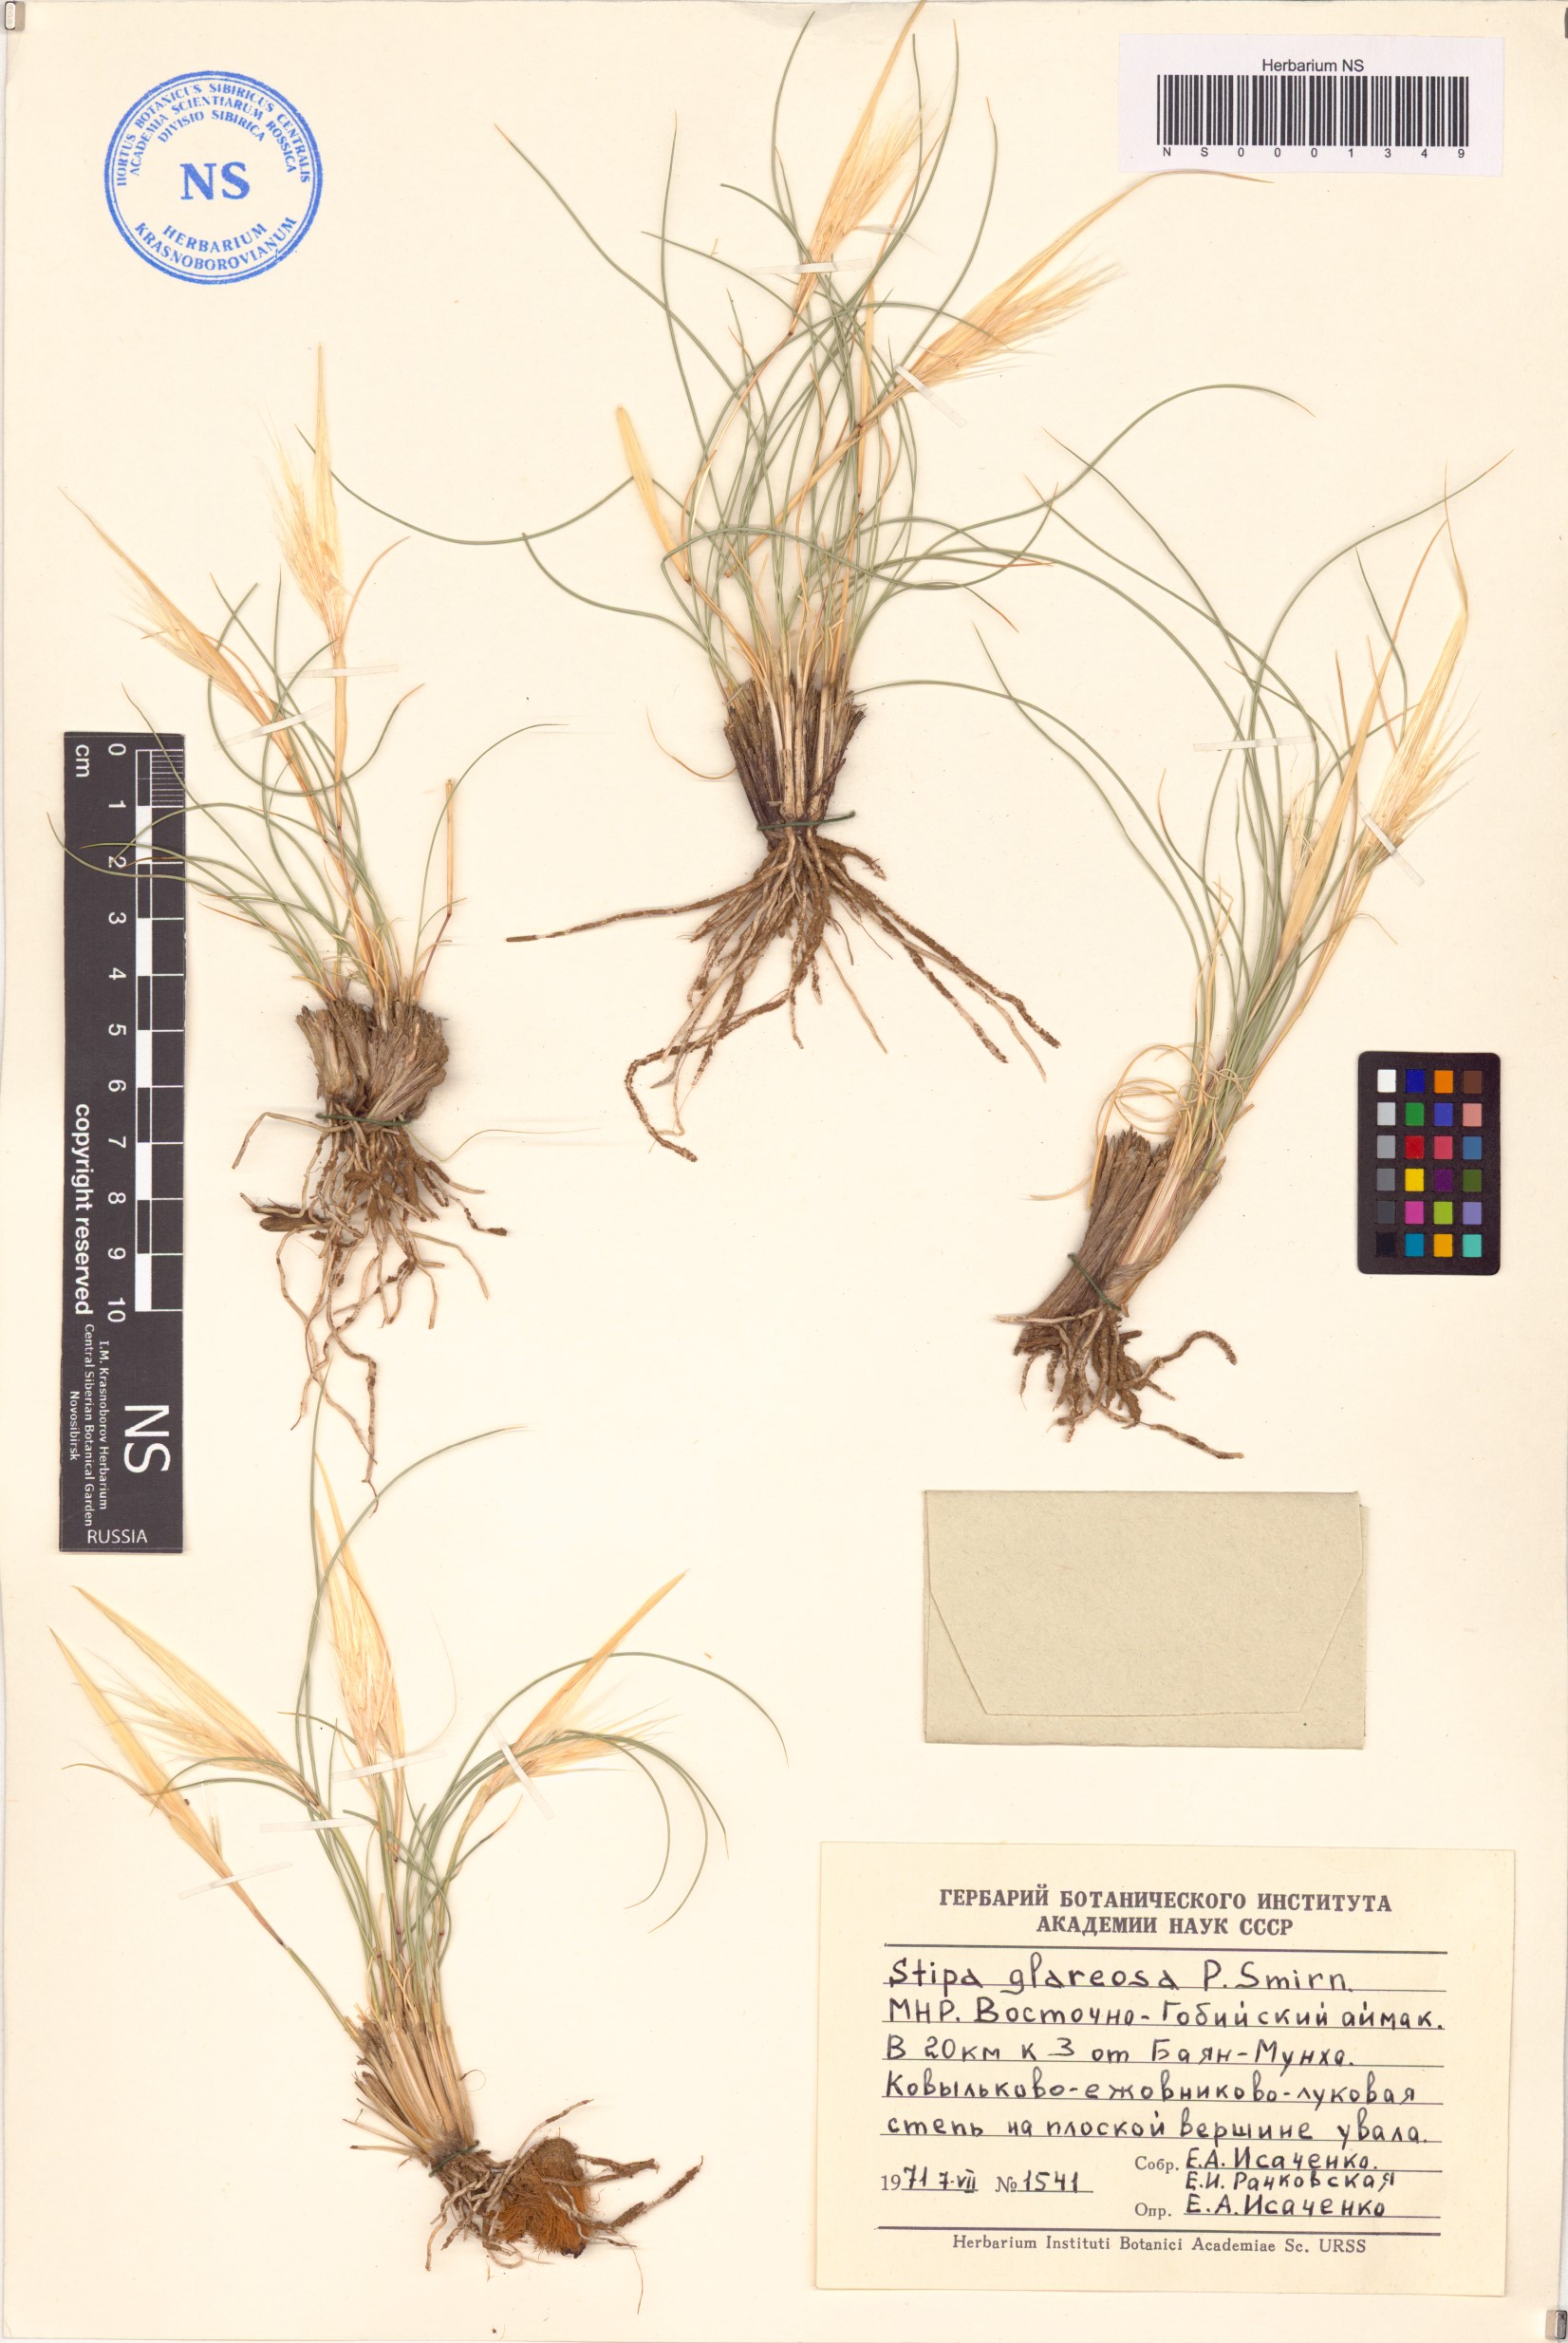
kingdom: Plantae
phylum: Tracheophyta
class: Liliopsida
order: Poales
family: Poaceae
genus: Stipa
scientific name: Stipa glareosa
